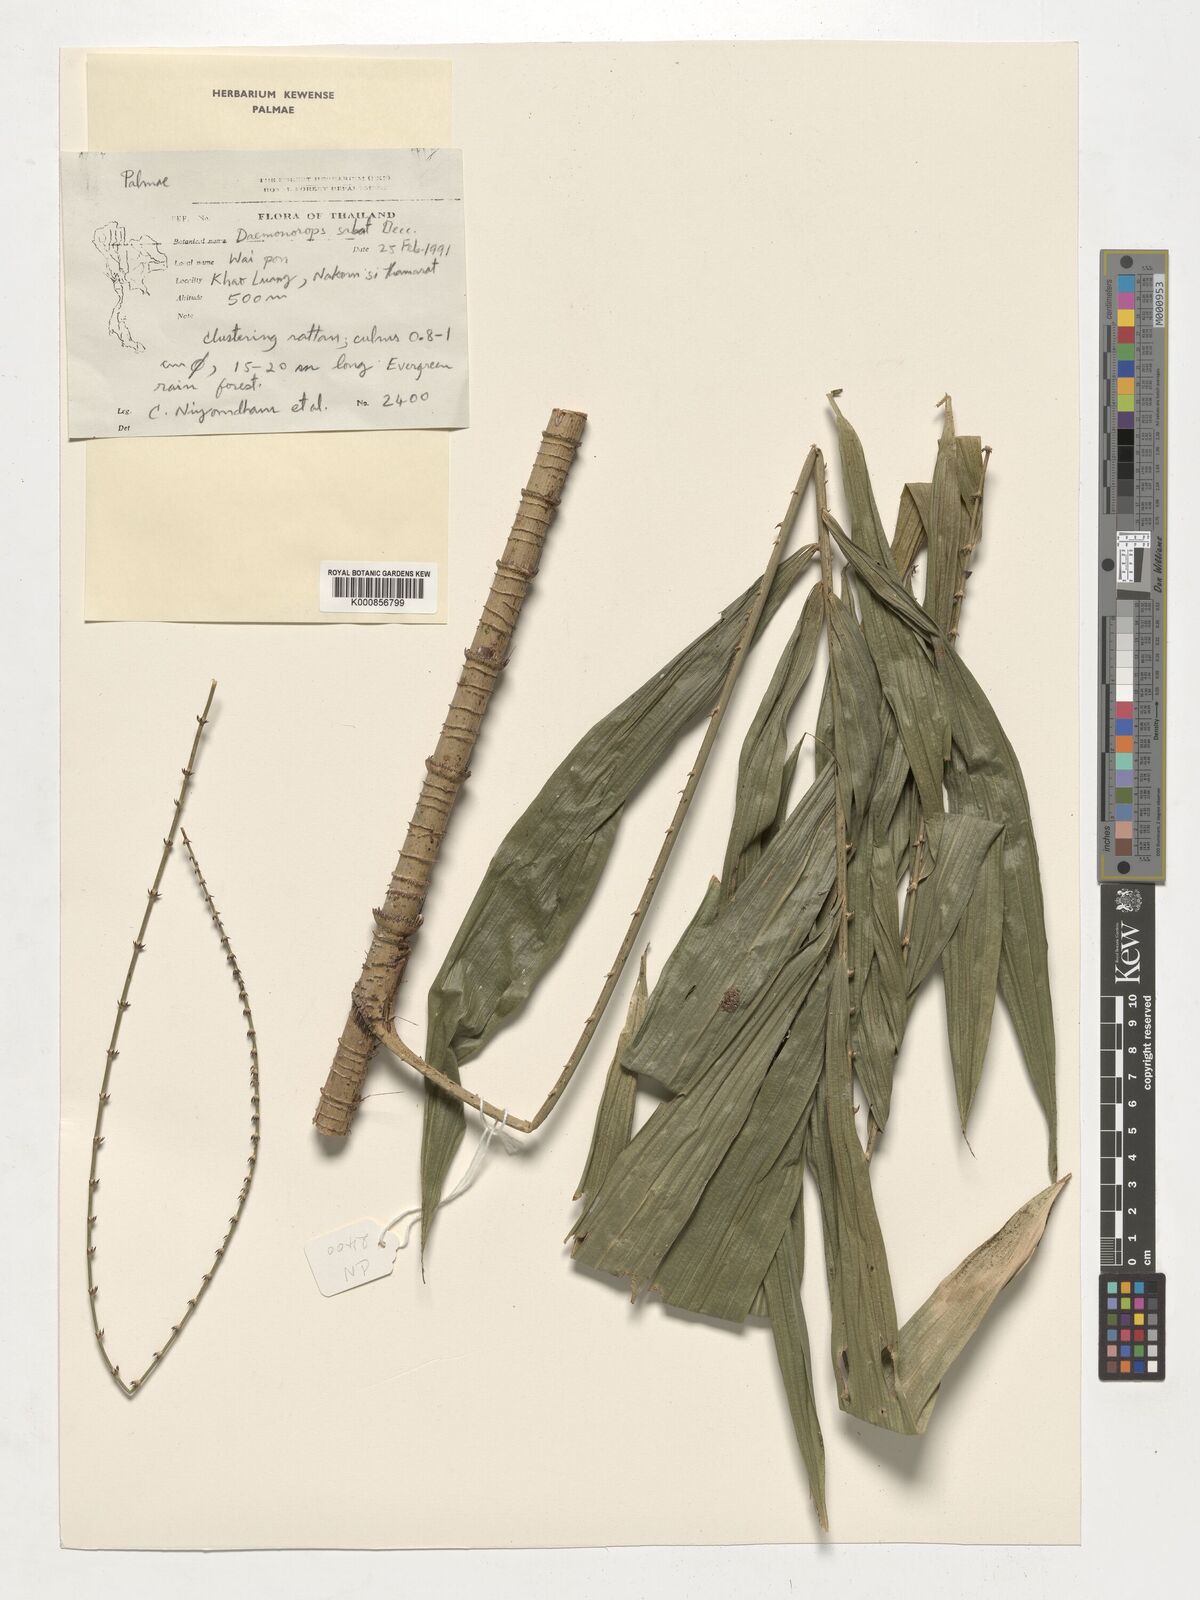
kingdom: Plantae
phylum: Tracheophyta
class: Liliopsida
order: Arecales
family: Arecaceae
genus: Calamus
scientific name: Calamus crinitus
